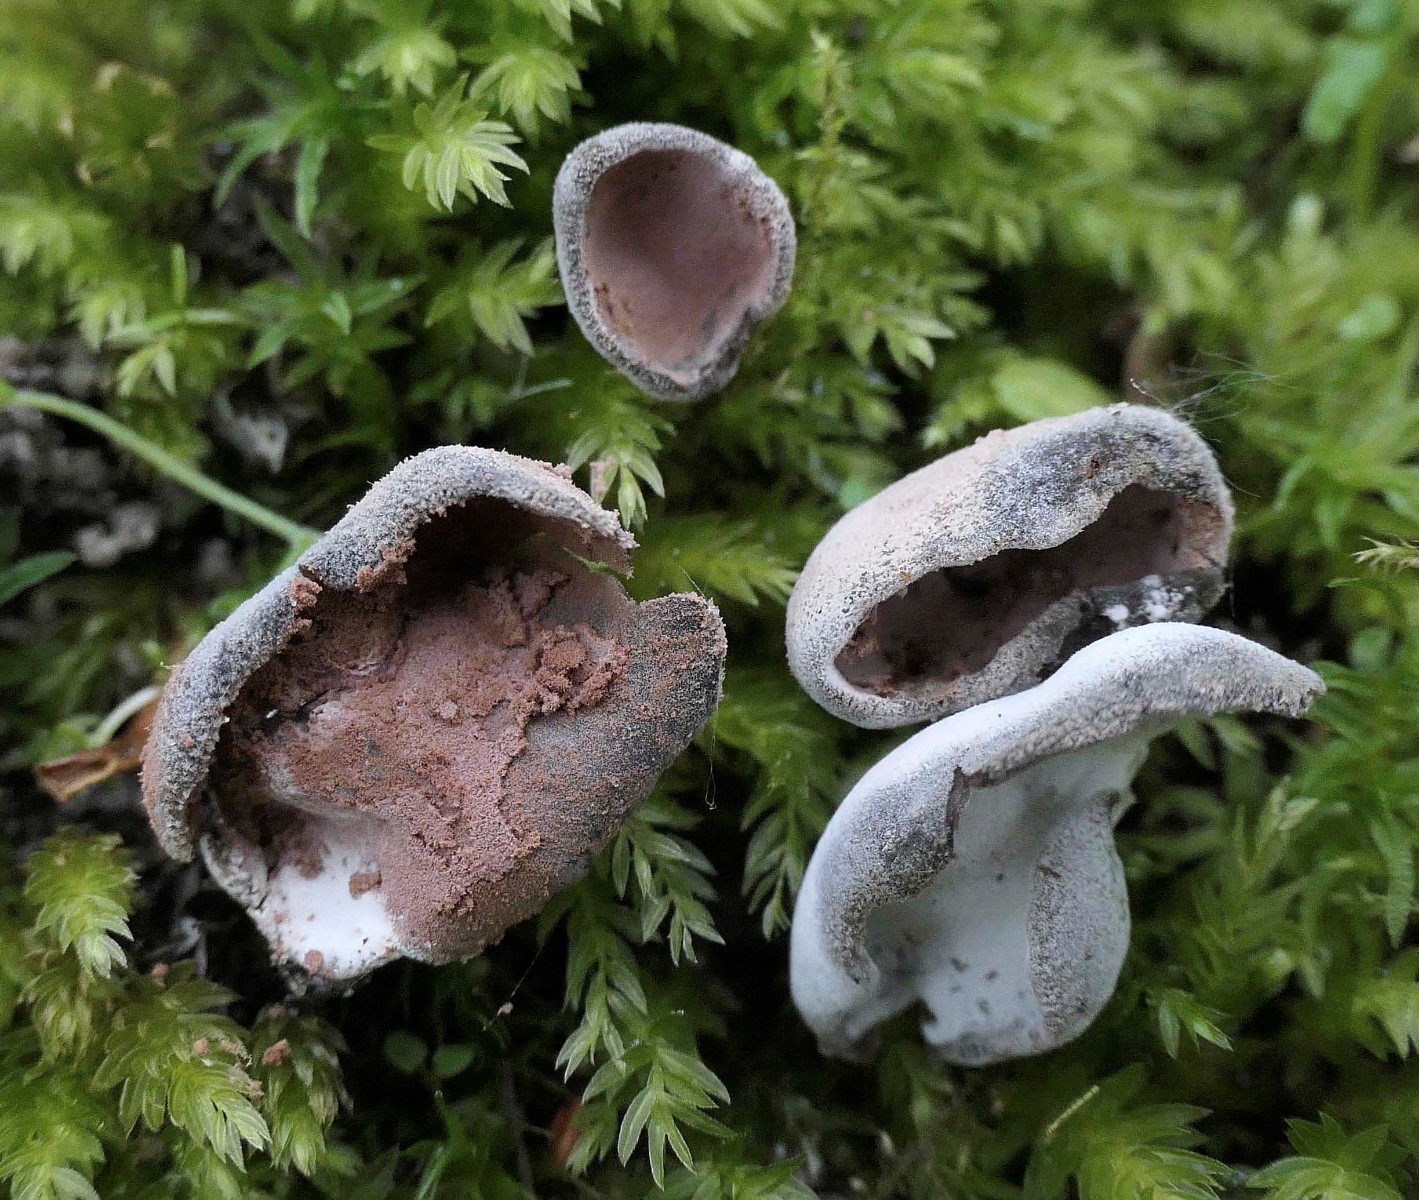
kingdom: Fungi
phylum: Ascomycota
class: Sordariomycetes
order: Hypocreales
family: Hypocreaceae
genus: Hypomyces
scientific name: Hypomyces cervinus
